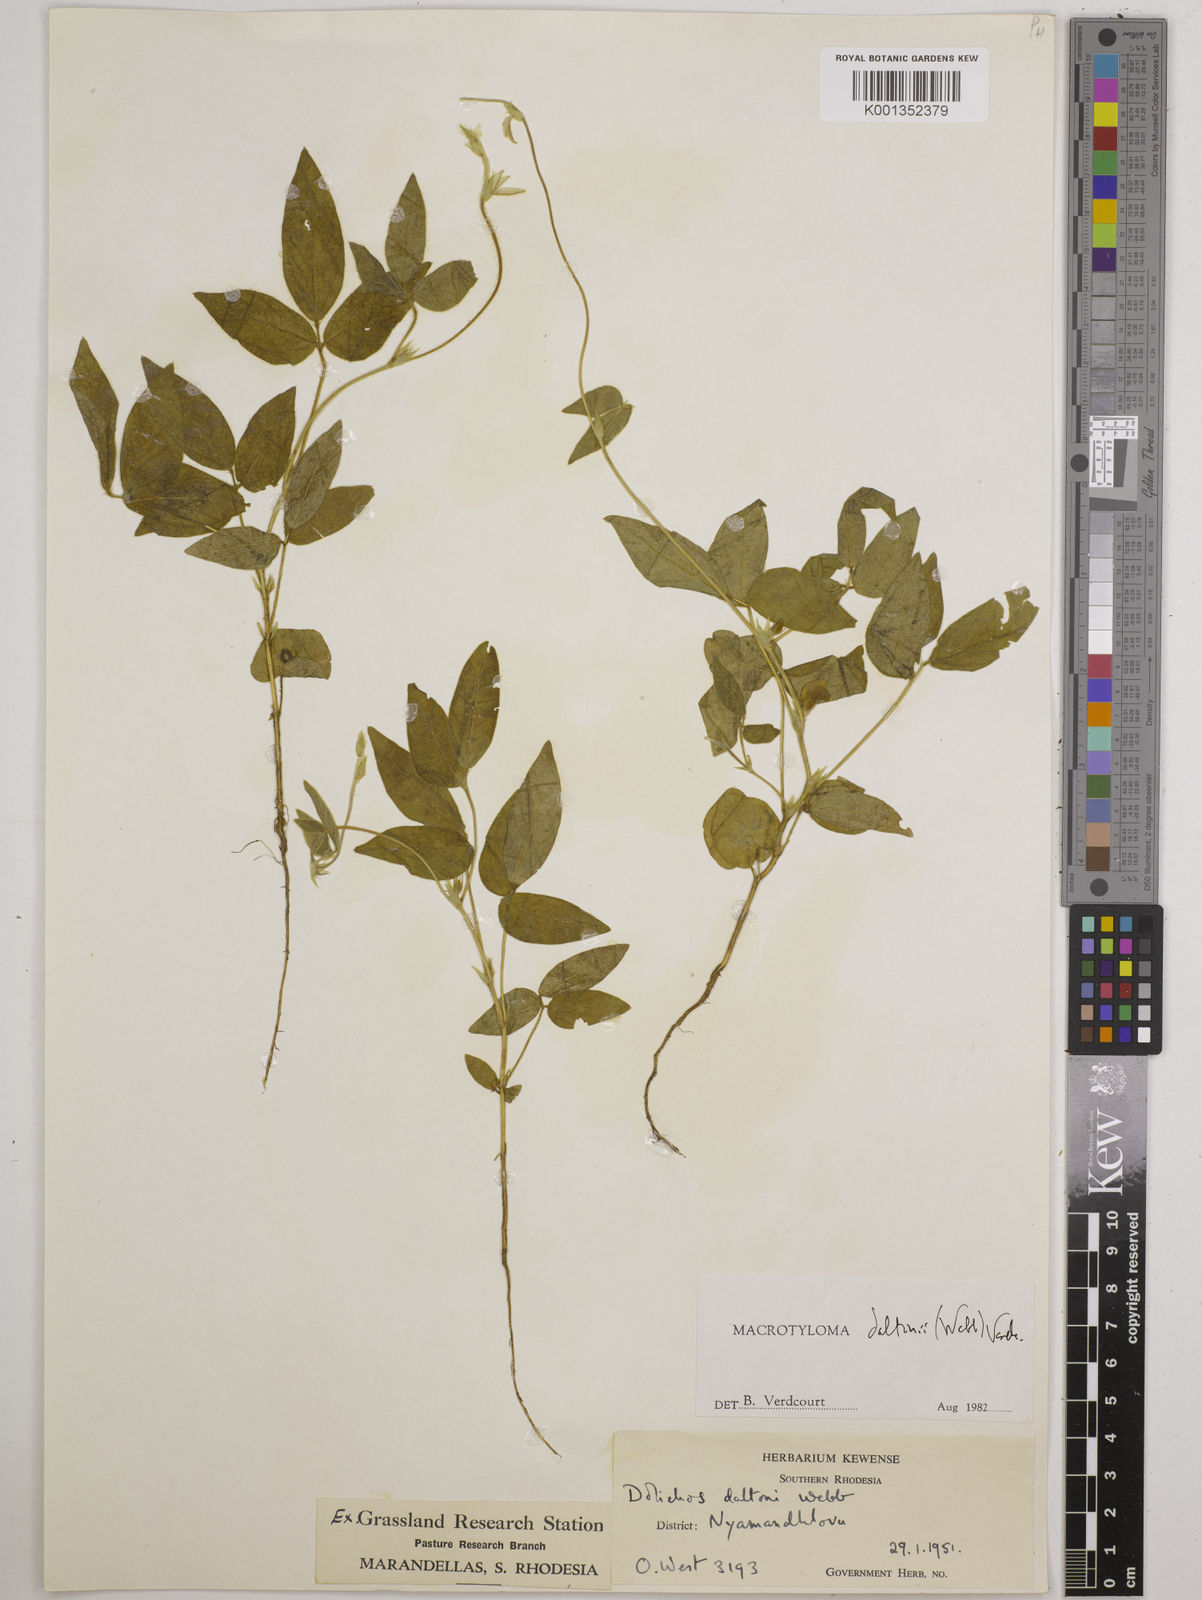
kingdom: Plantae
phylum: Tracheophyta
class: Magnoliopsida
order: Fabales
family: Fabaceae
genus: Macrotyloma
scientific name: Macrotyloma daltonii
